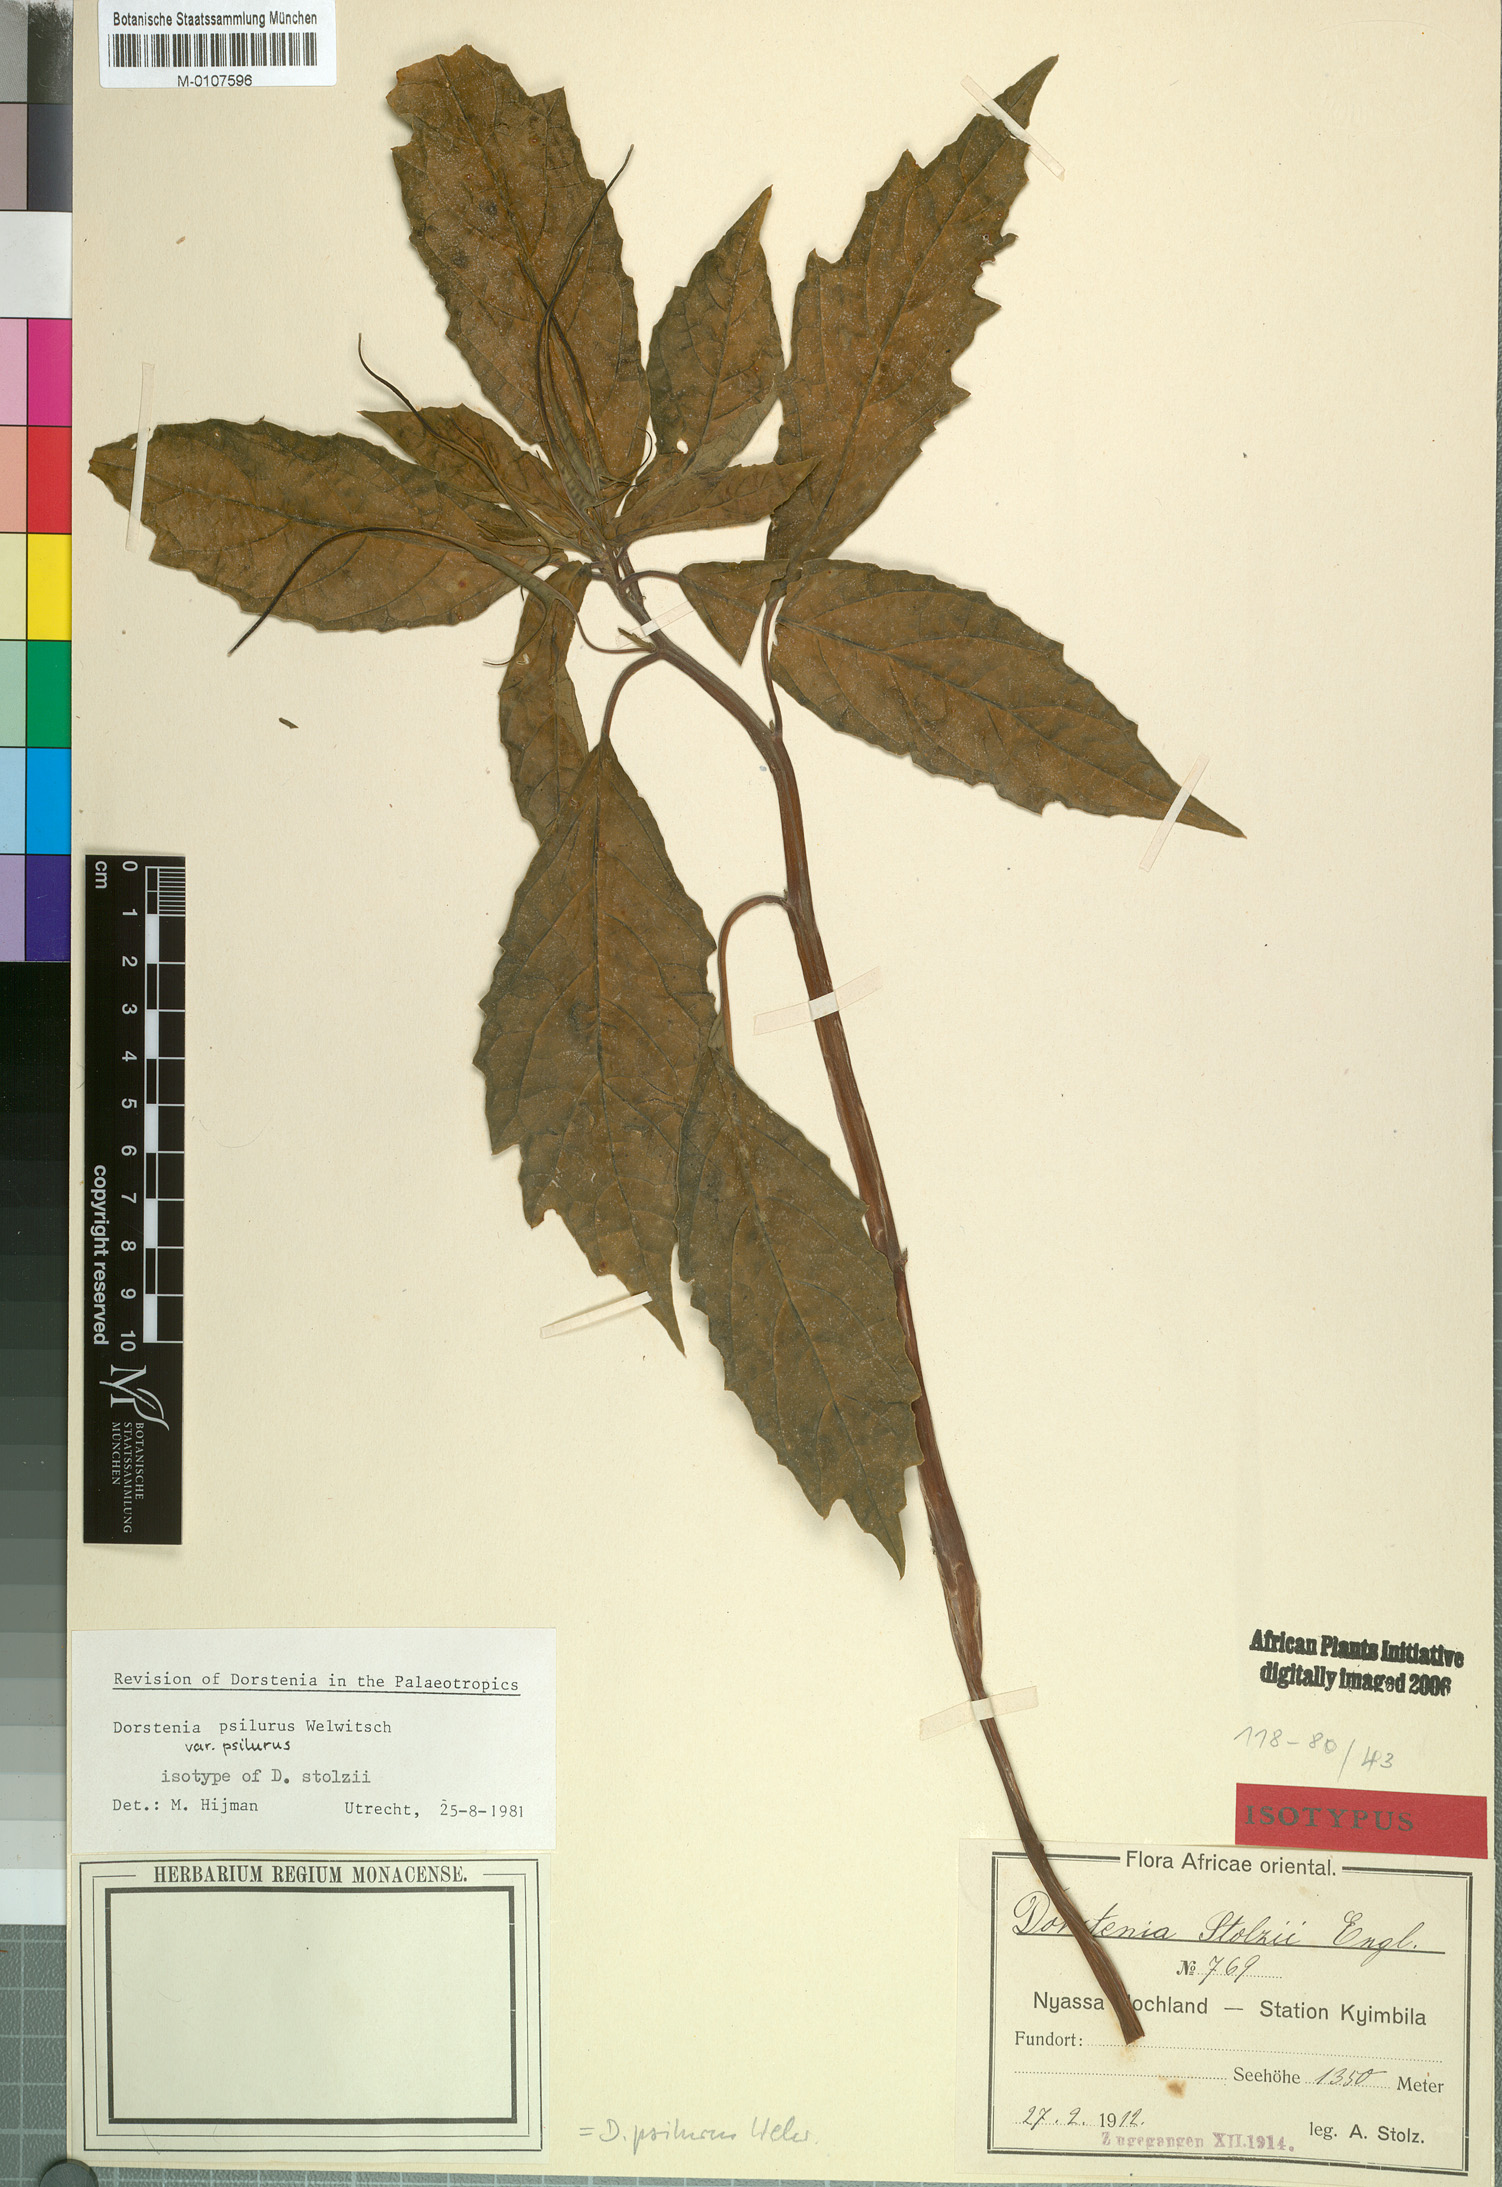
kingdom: Plantae
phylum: Tracheophyta
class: Magnoliopsida
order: Rosales
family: Moraceae
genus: Dorstenia
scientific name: Dorstenia psilurus
